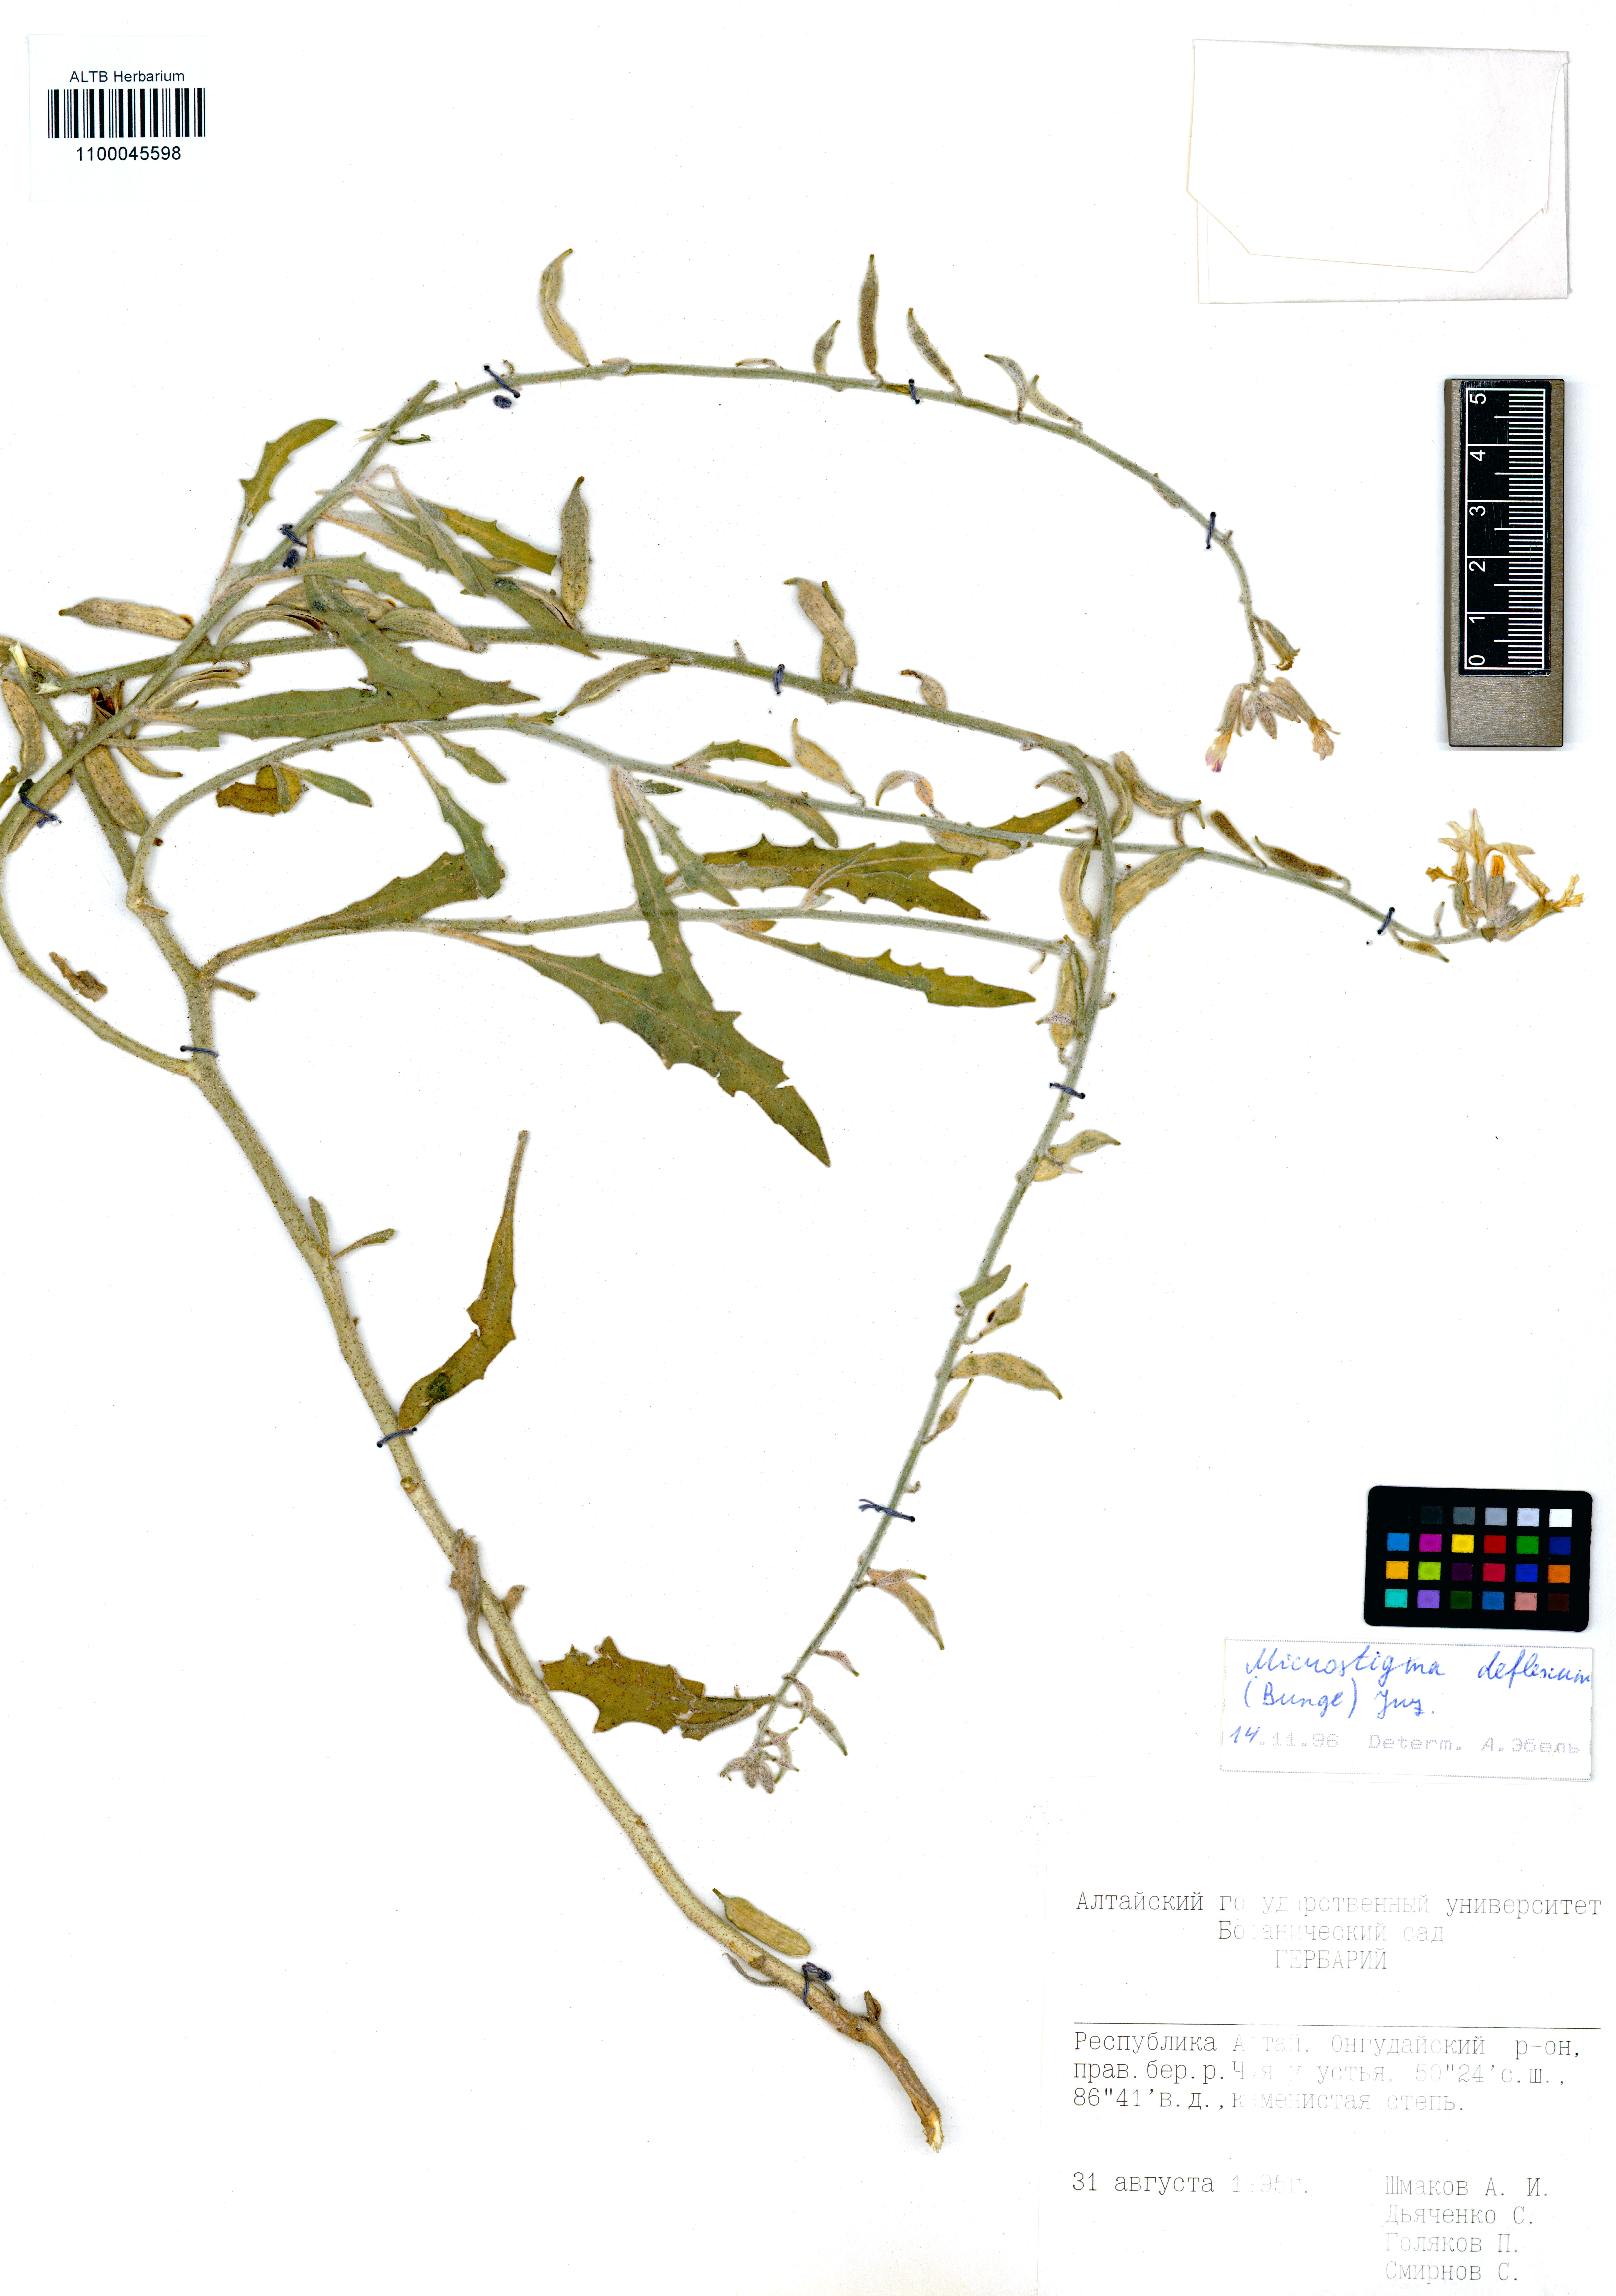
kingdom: Plantae
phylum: Tracheophyta
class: Magnoliopsida
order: Brassicales
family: Brassicaceae
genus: Microstigma
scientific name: Microstigma deflexum
